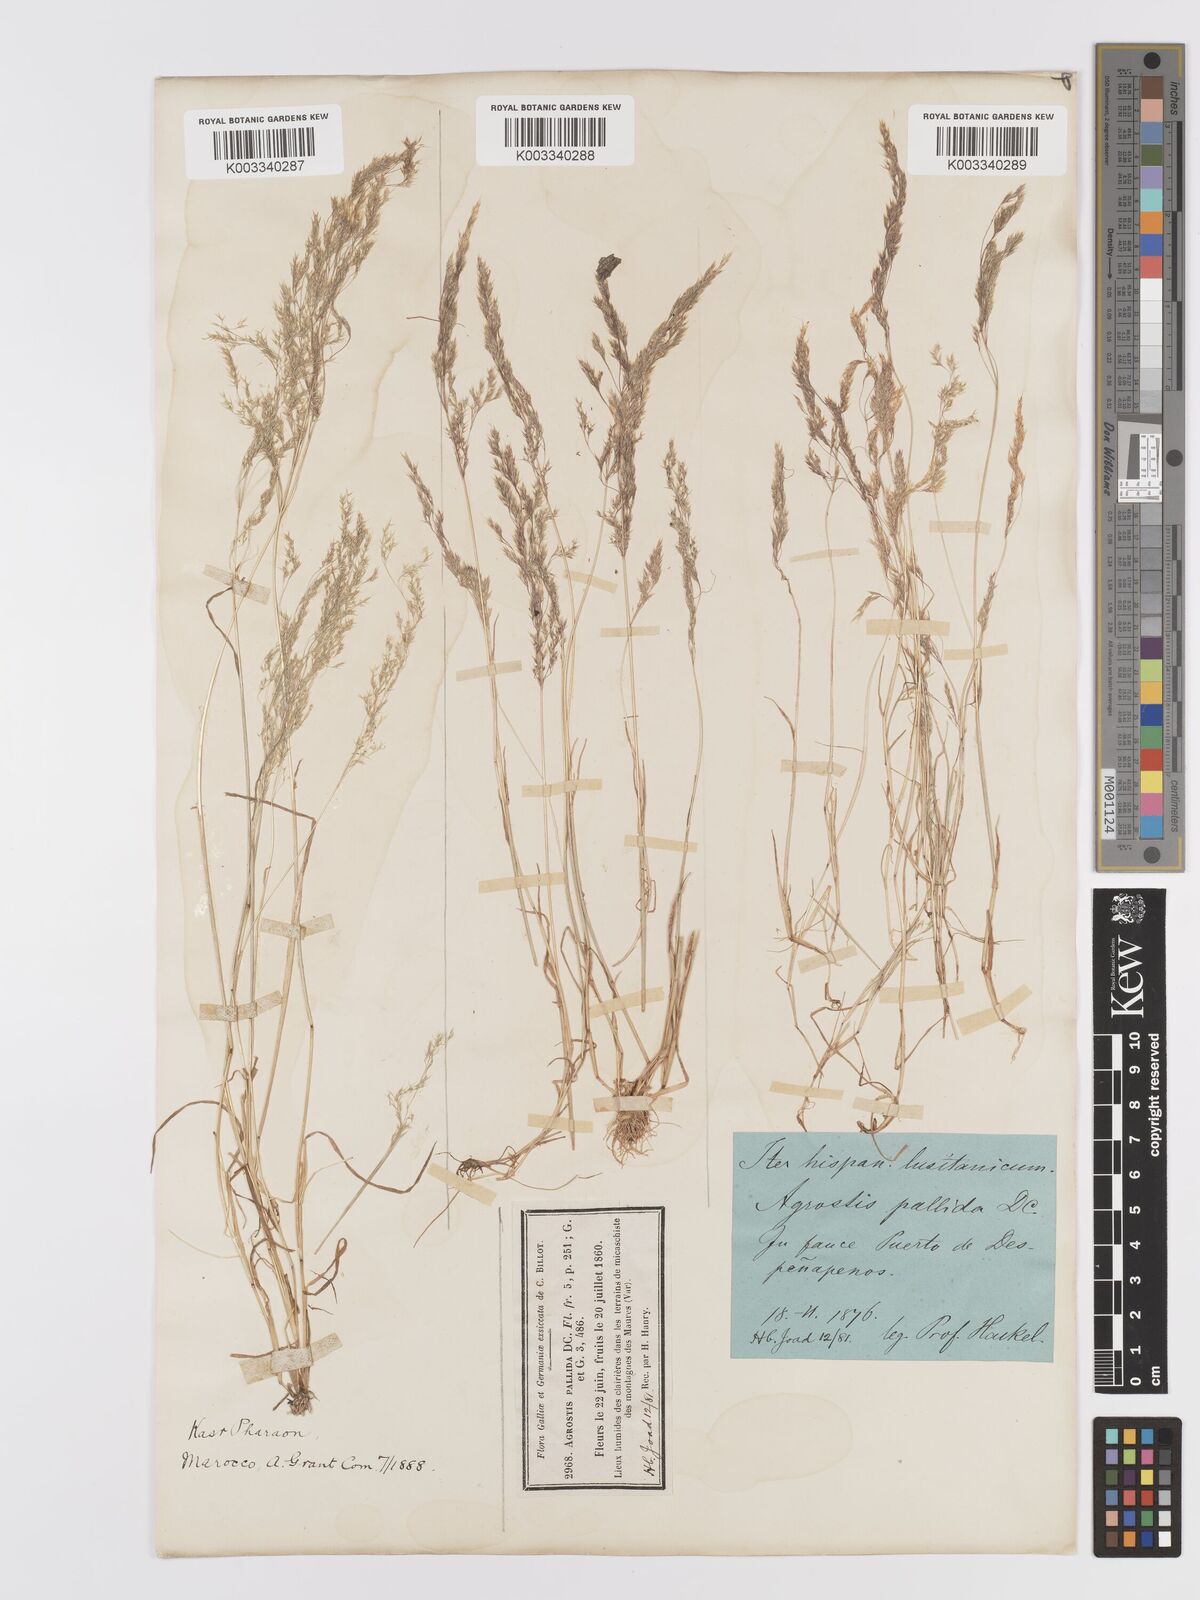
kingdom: Plantae
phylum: Tracheophyta
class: Liliopsida
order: Poales
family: Poaceae
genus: Agrostis
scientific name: Agrostis pourretii
